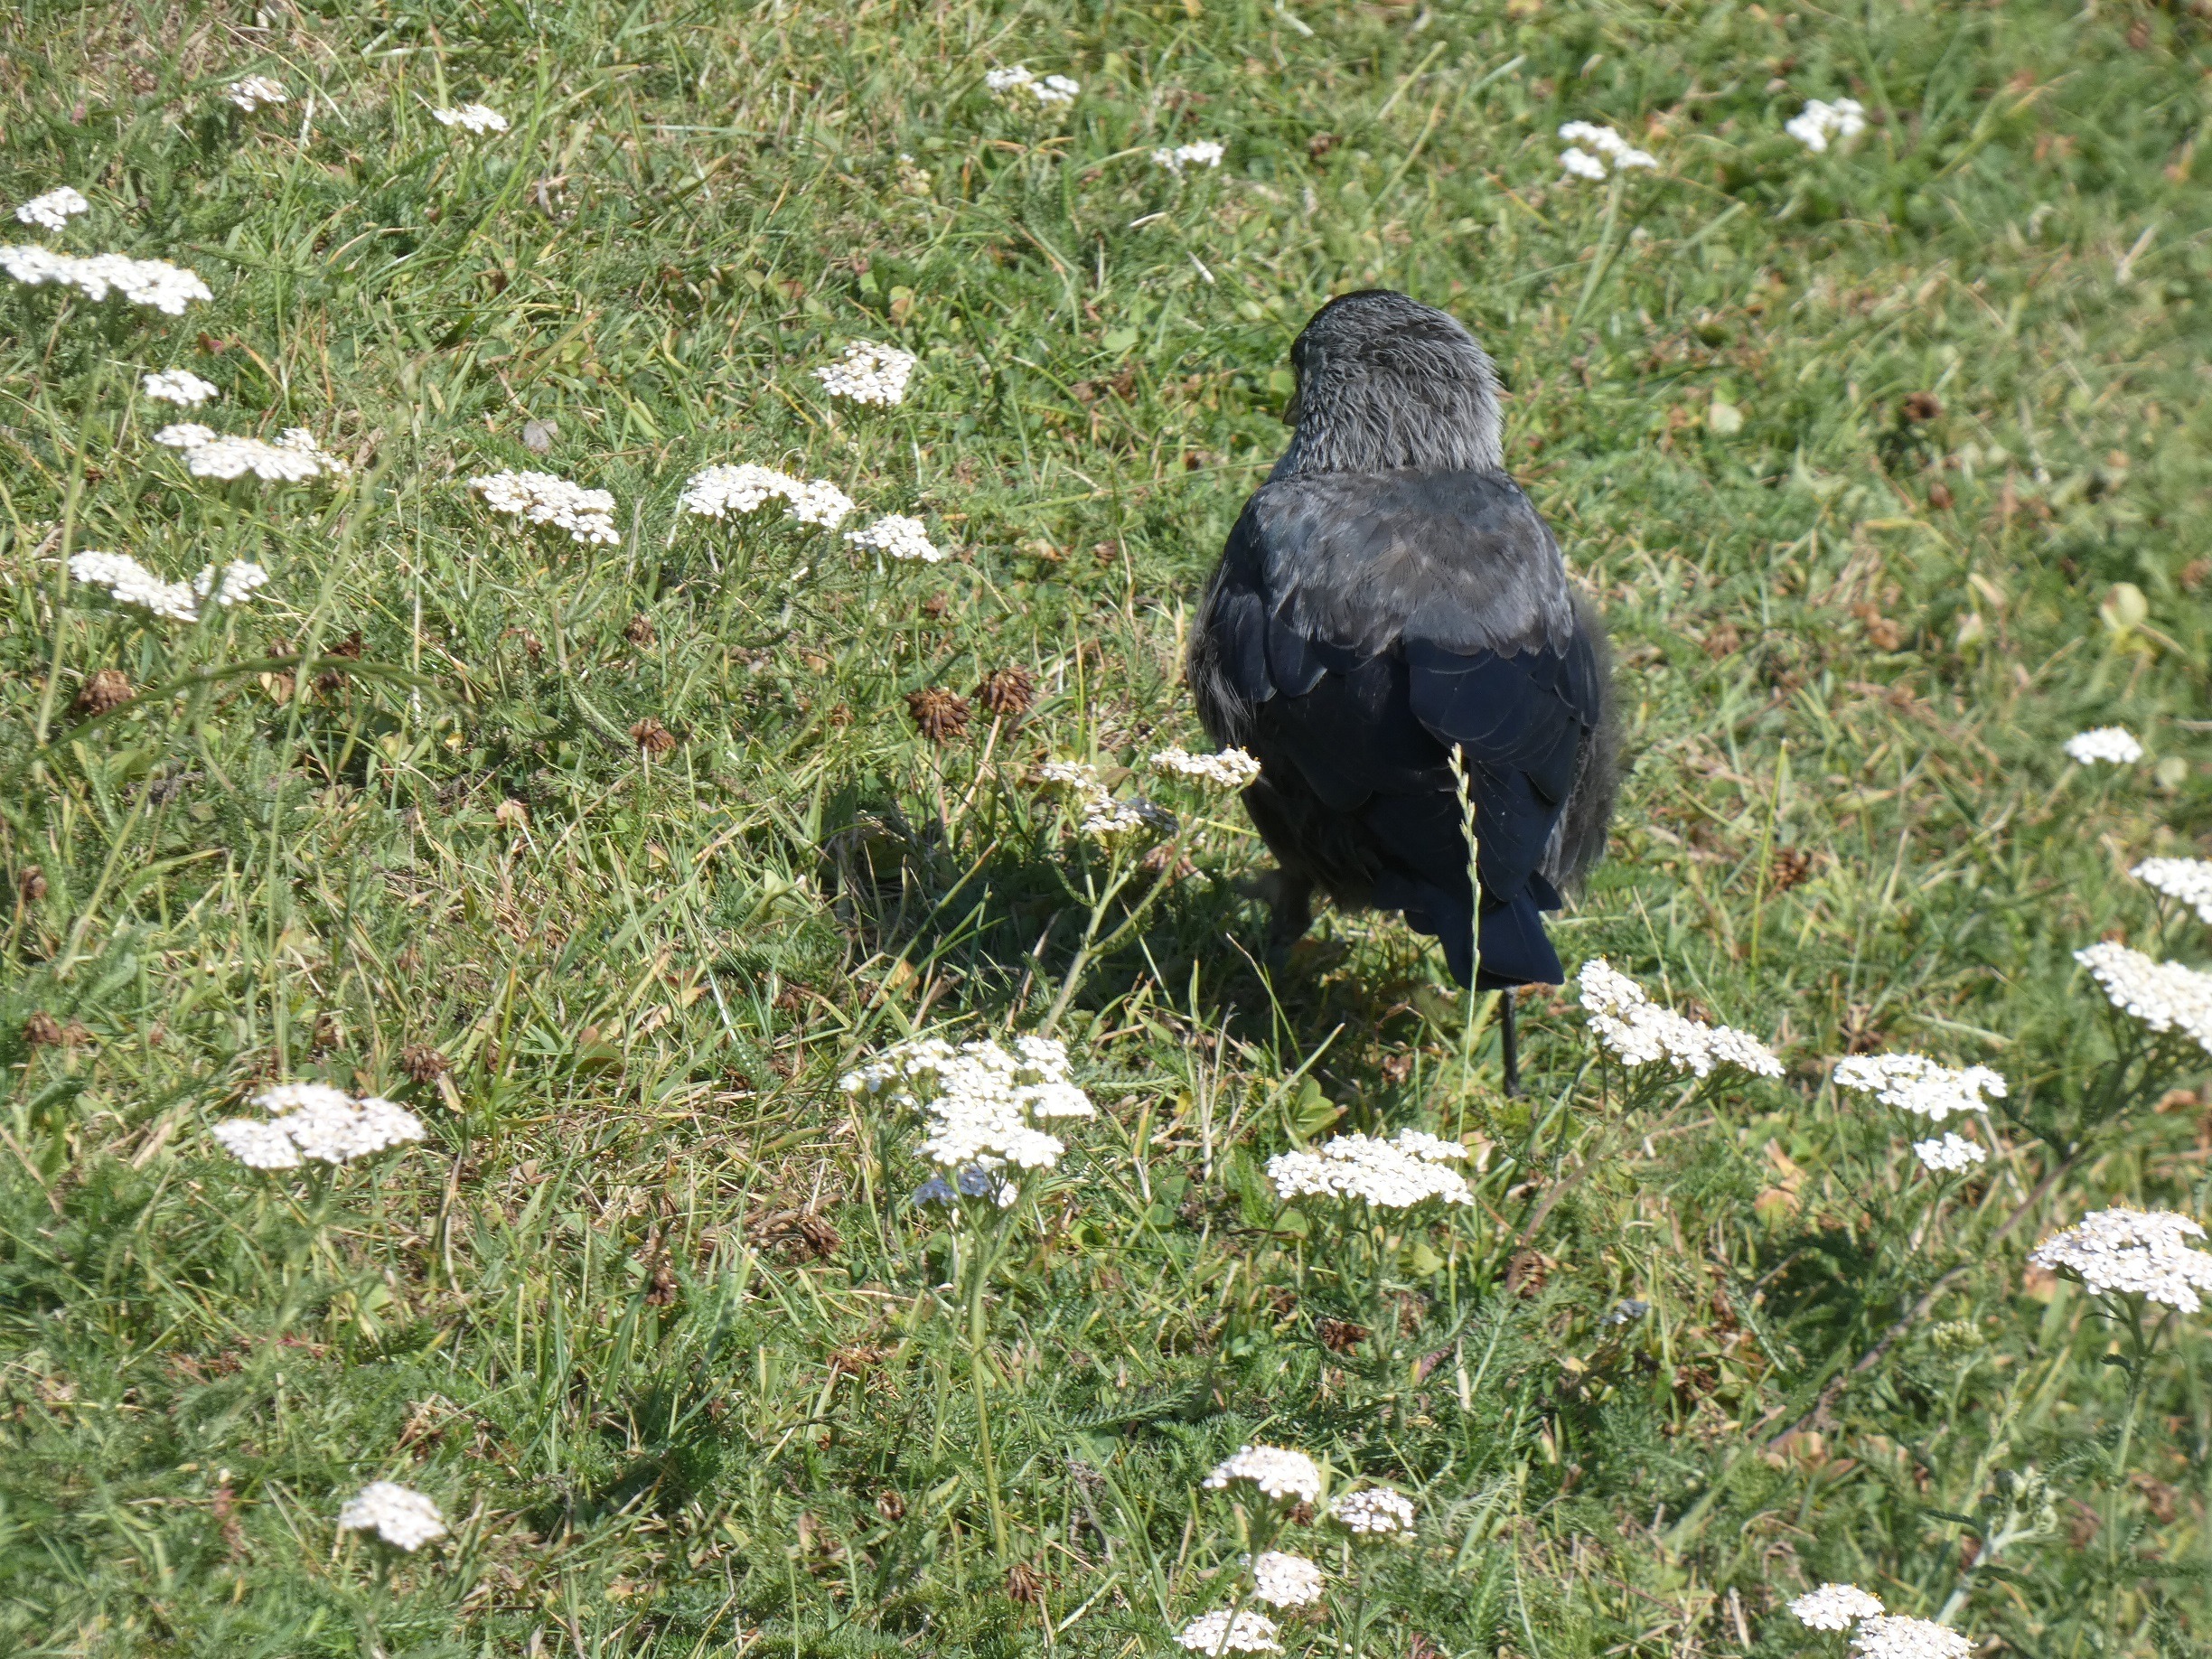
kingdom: Animalia
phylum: Chordata
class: Aves
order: Passeriformes
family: Corvidae
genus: Coloeus
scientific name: Coloeus monedula
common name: Allike
